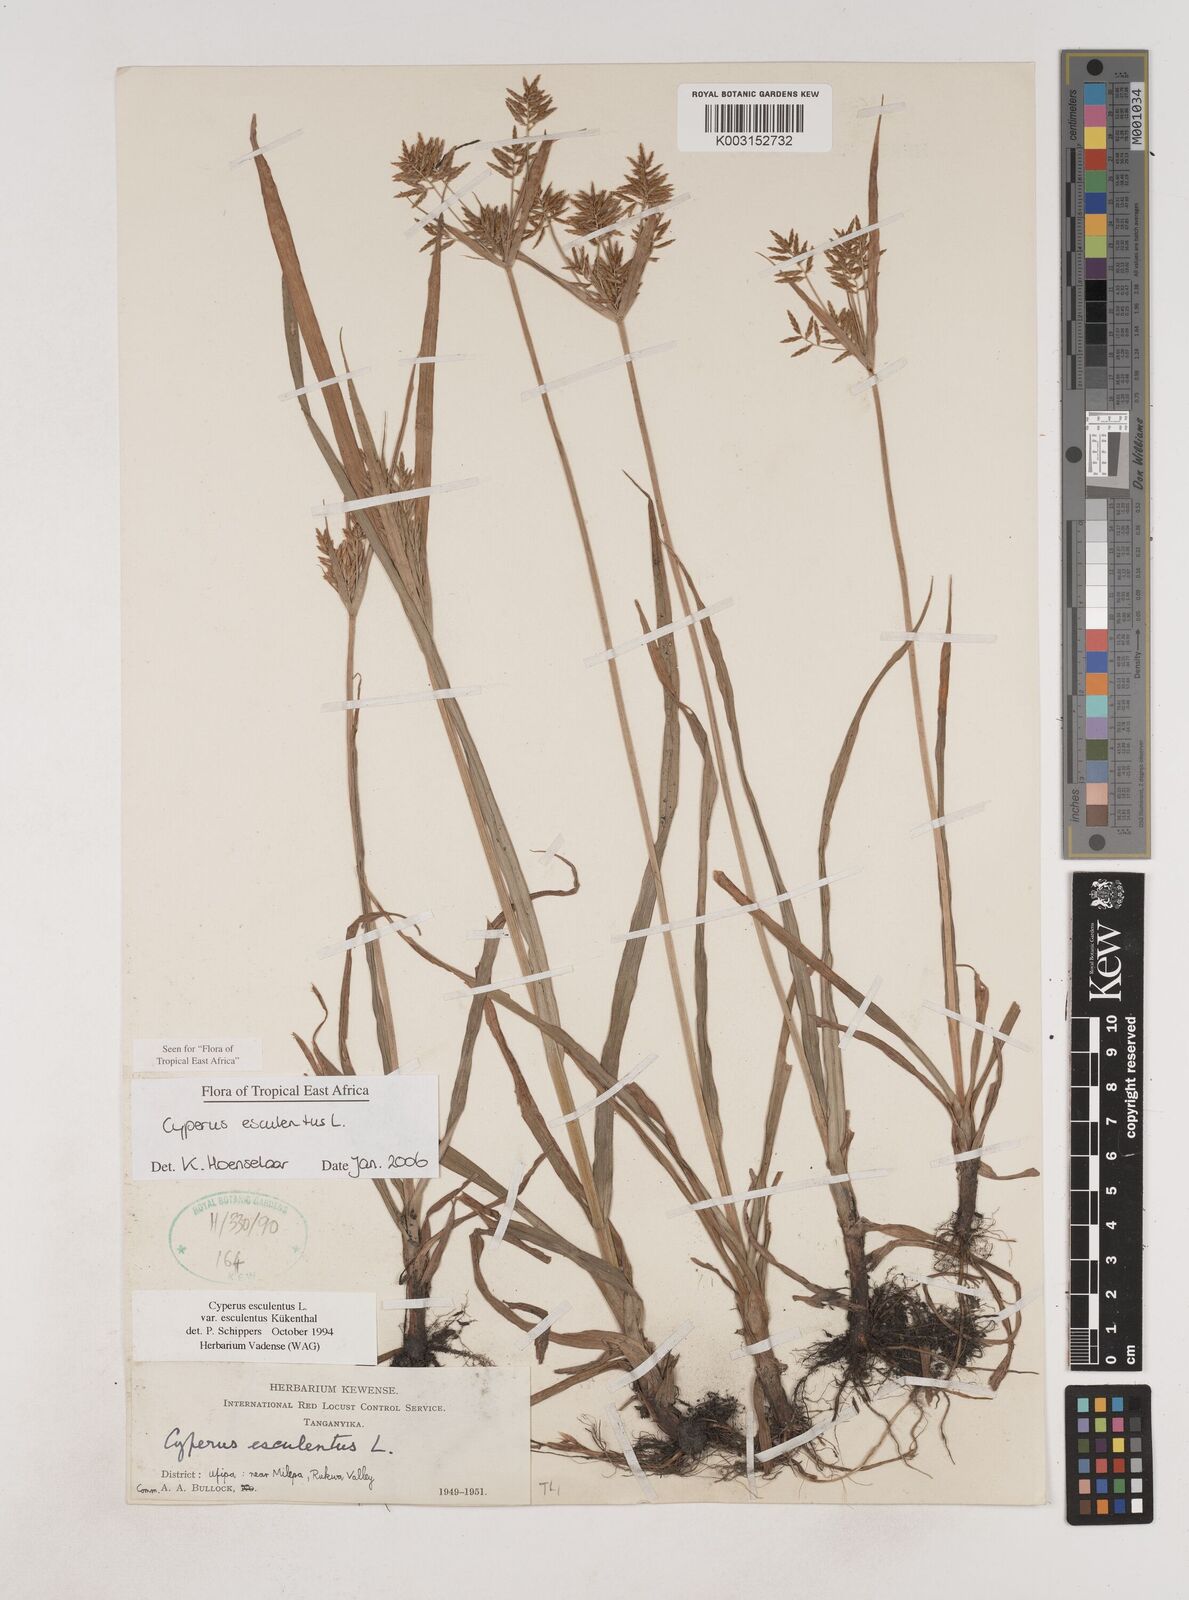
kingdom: Plantae
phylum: Tracheophyta
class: Liliopsida
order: Poales
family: Cyperaceae
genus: Cyperus
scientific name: Cyperus esculentus
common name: Yellow nutsedge
